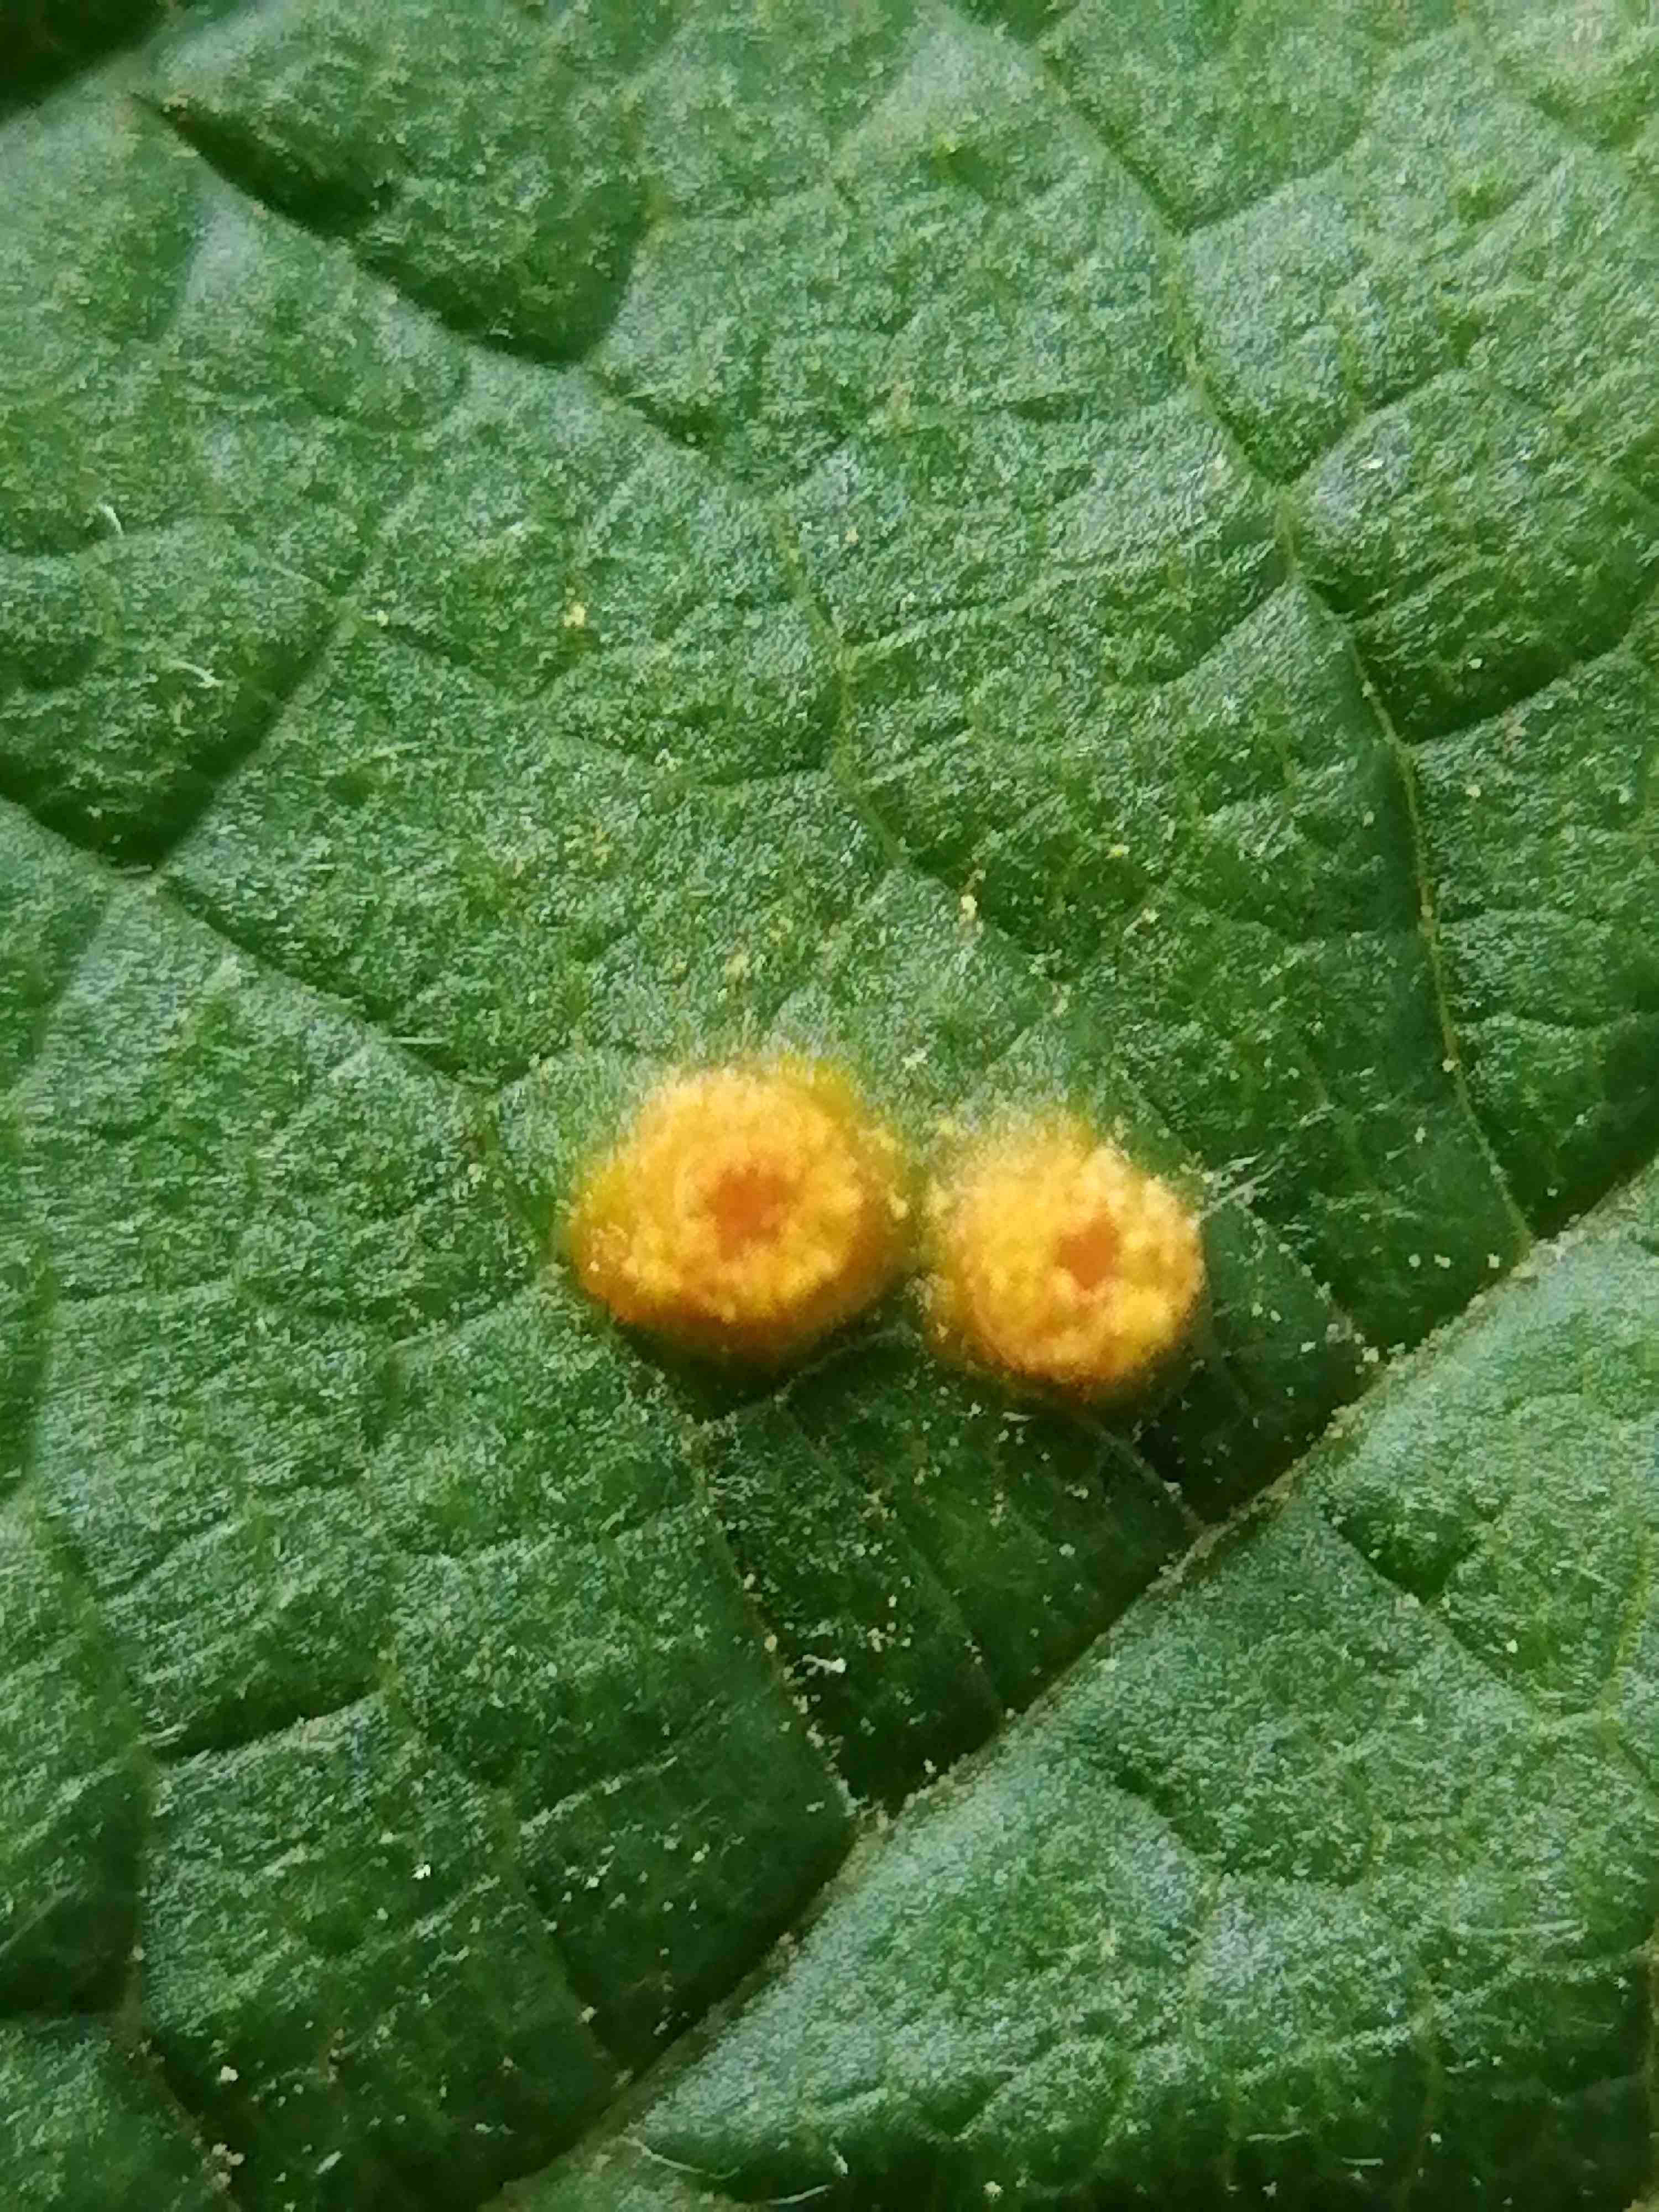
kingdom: Fungi
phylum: Basidiomycota
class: Pucciniomycetes
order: Pucciniales
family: Phragmidiaceae
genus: Phragmidium
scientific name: Phragmidium rubi-idaei
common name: hindbær-flercellerust
